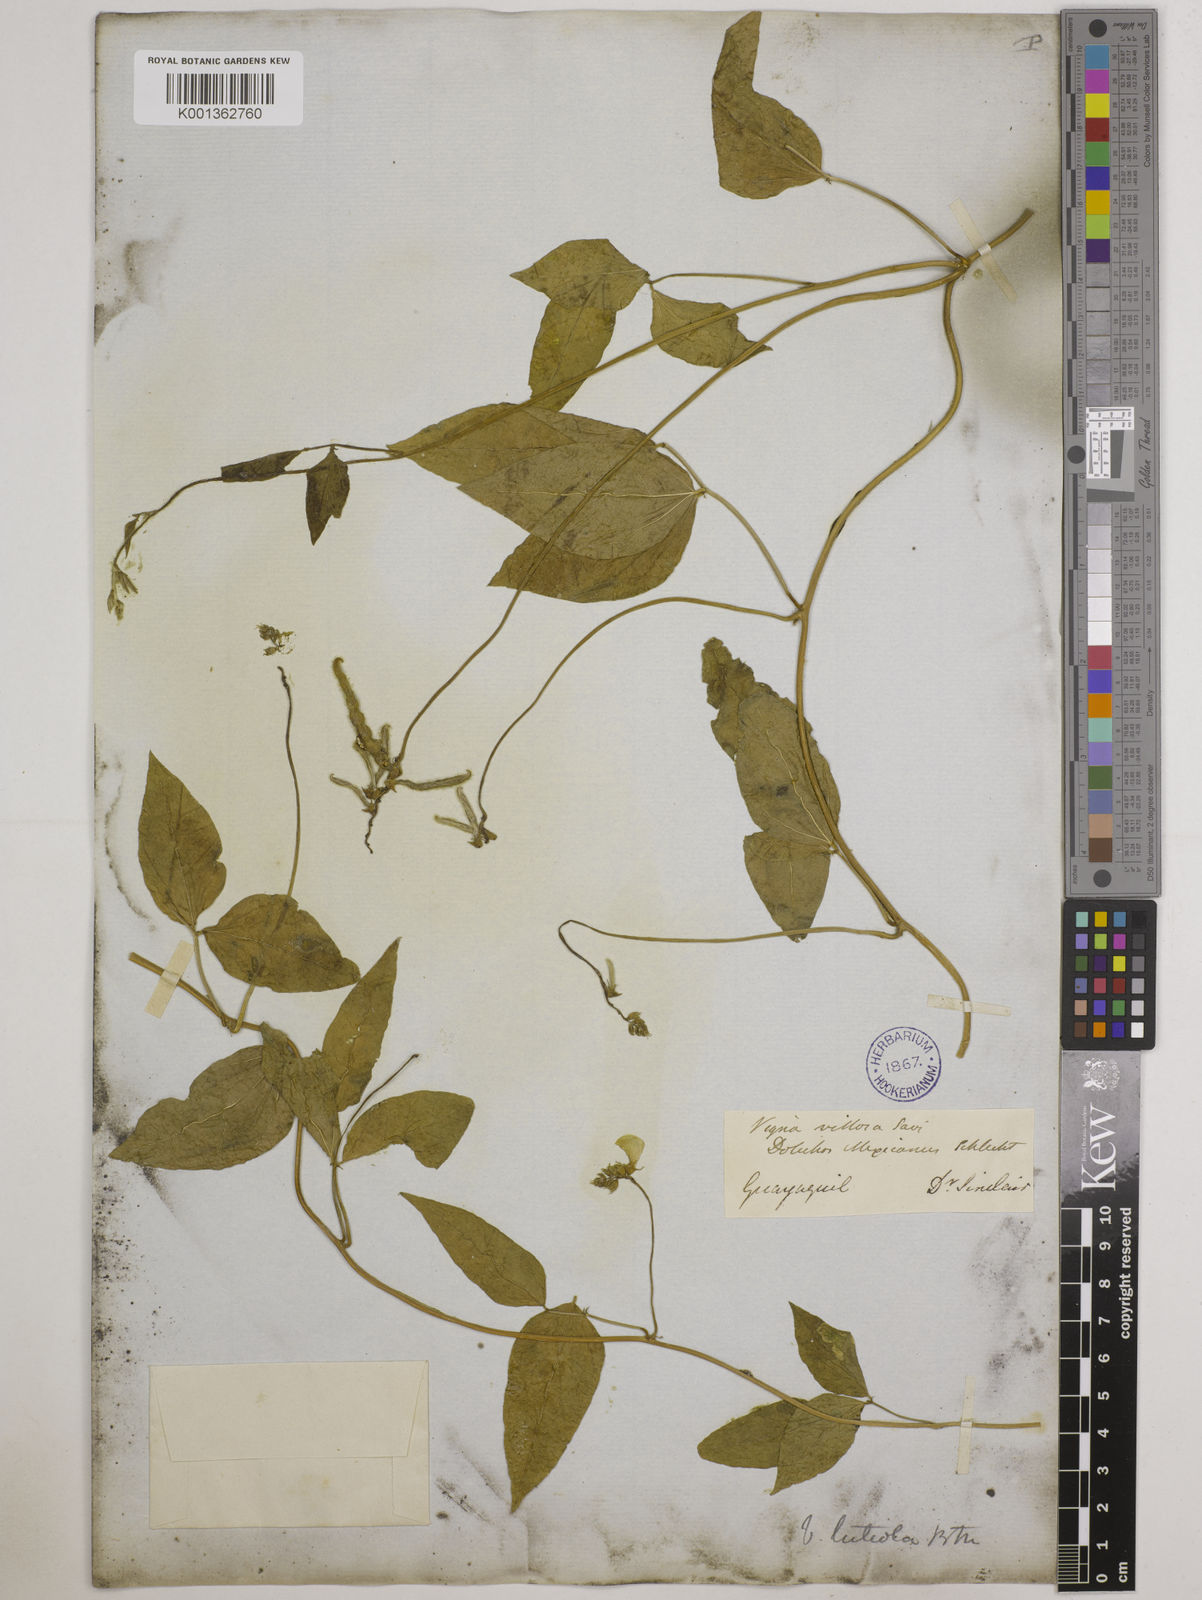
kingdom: Plantae
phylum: Tracheophyta
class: Magnoliopsida
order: Fabales
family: Fabaceae
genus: Vigna
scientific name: Vigna luteola
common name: Hairypod cowpea
